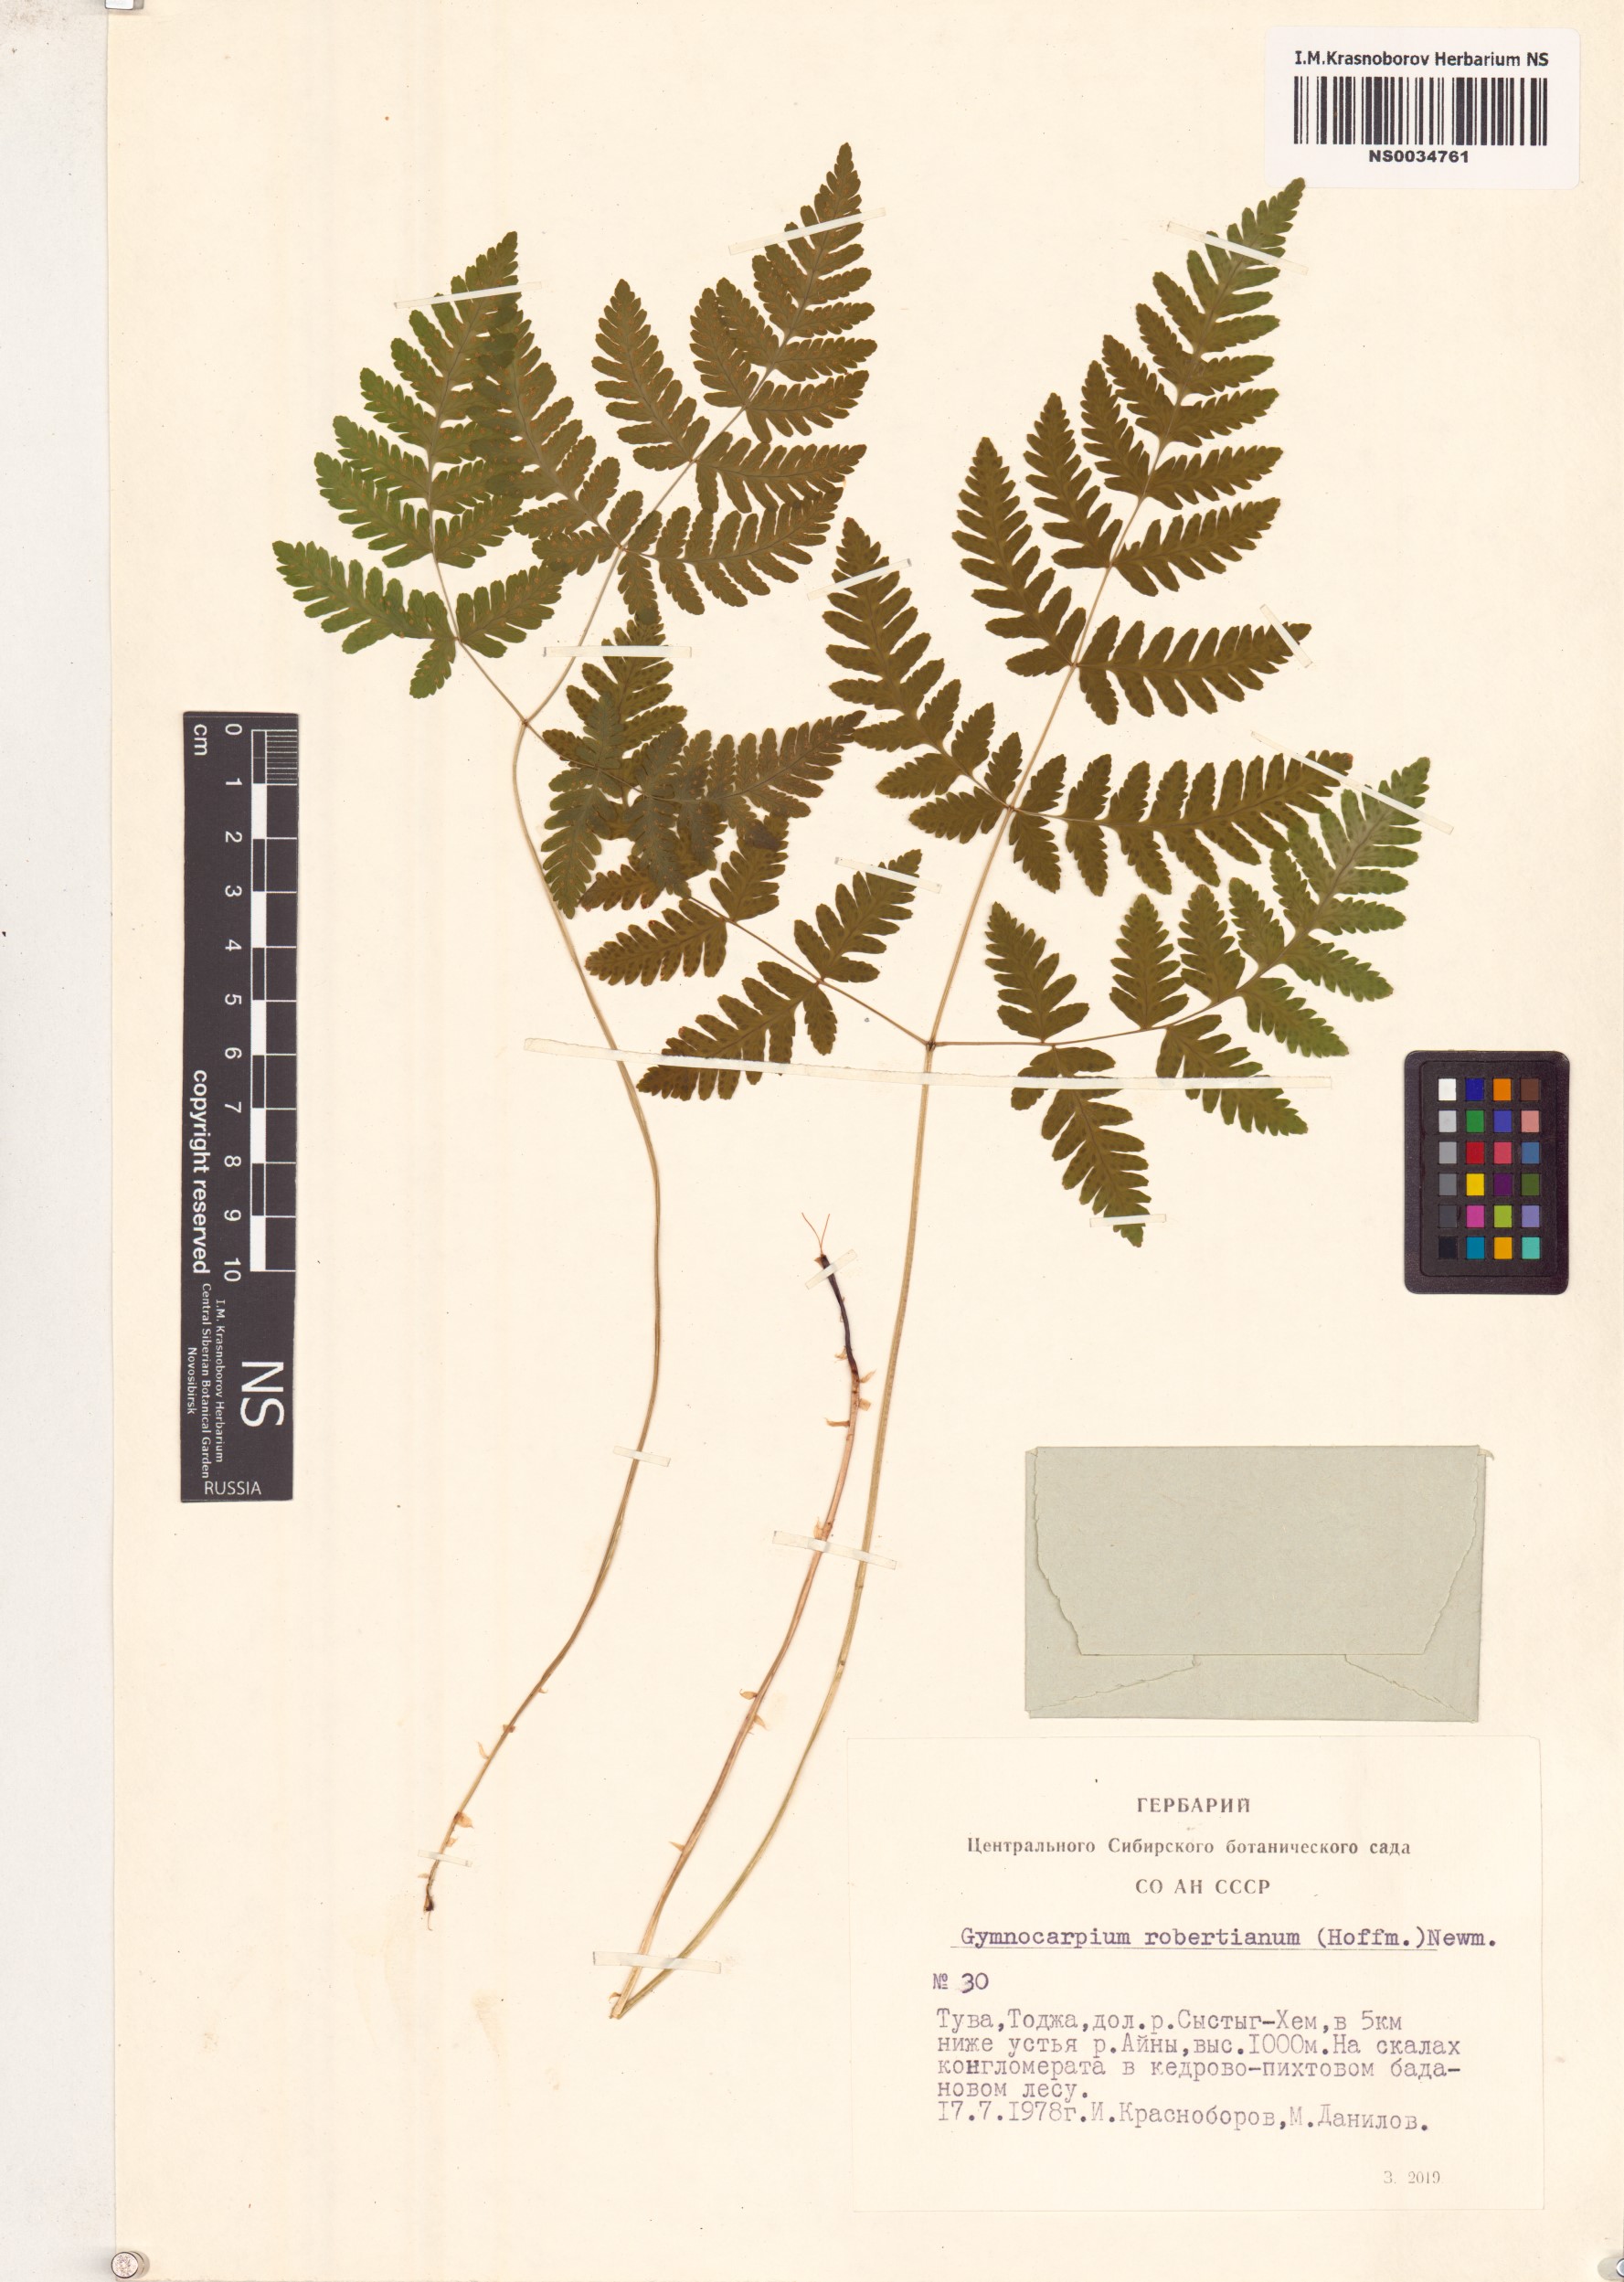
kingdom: Plantae
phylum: Tracheophyta
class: Polypodiopsida
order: Polypodiales
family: Cystopteridaceae
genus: Gymnocarpium
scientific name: Gymnocarpium robertianum
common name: Limestone fern
